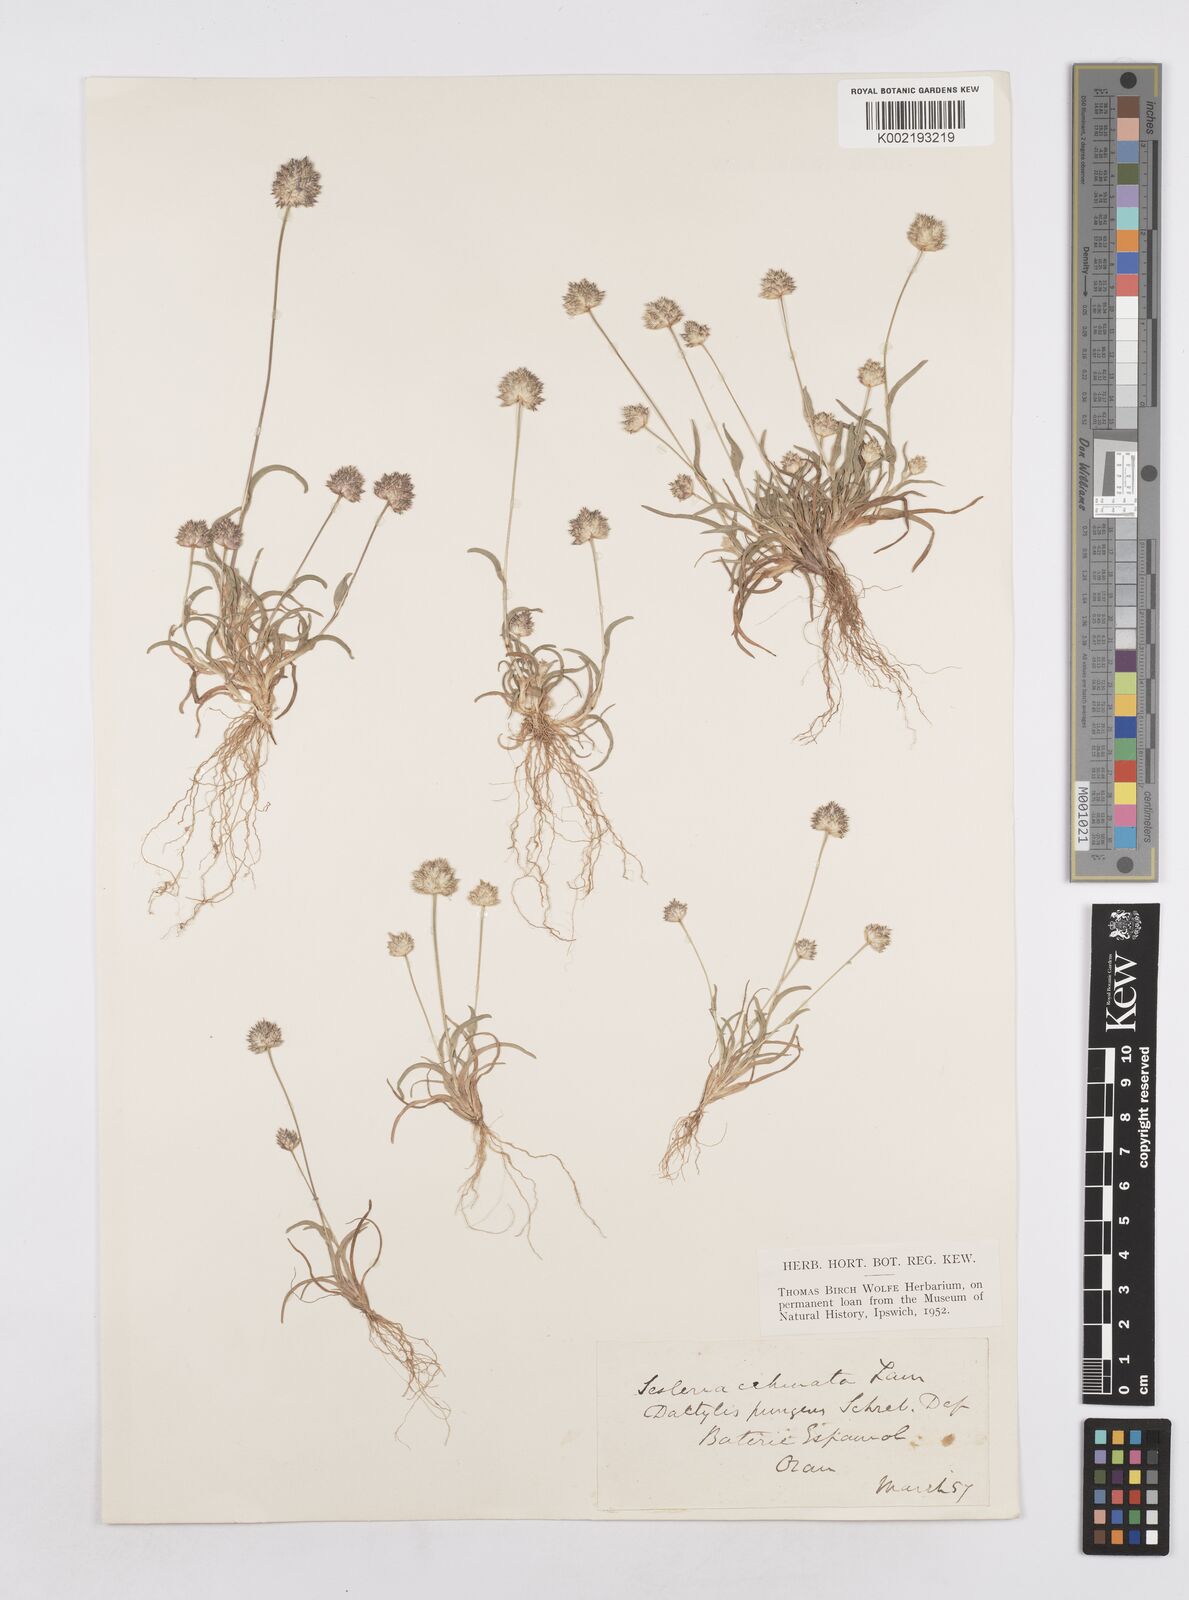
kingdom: Plantae
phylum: Tracheophyta
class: Liliopsida
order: Poales
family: Poaceae
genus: Ammochloa
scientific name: Ammochloa pungens
